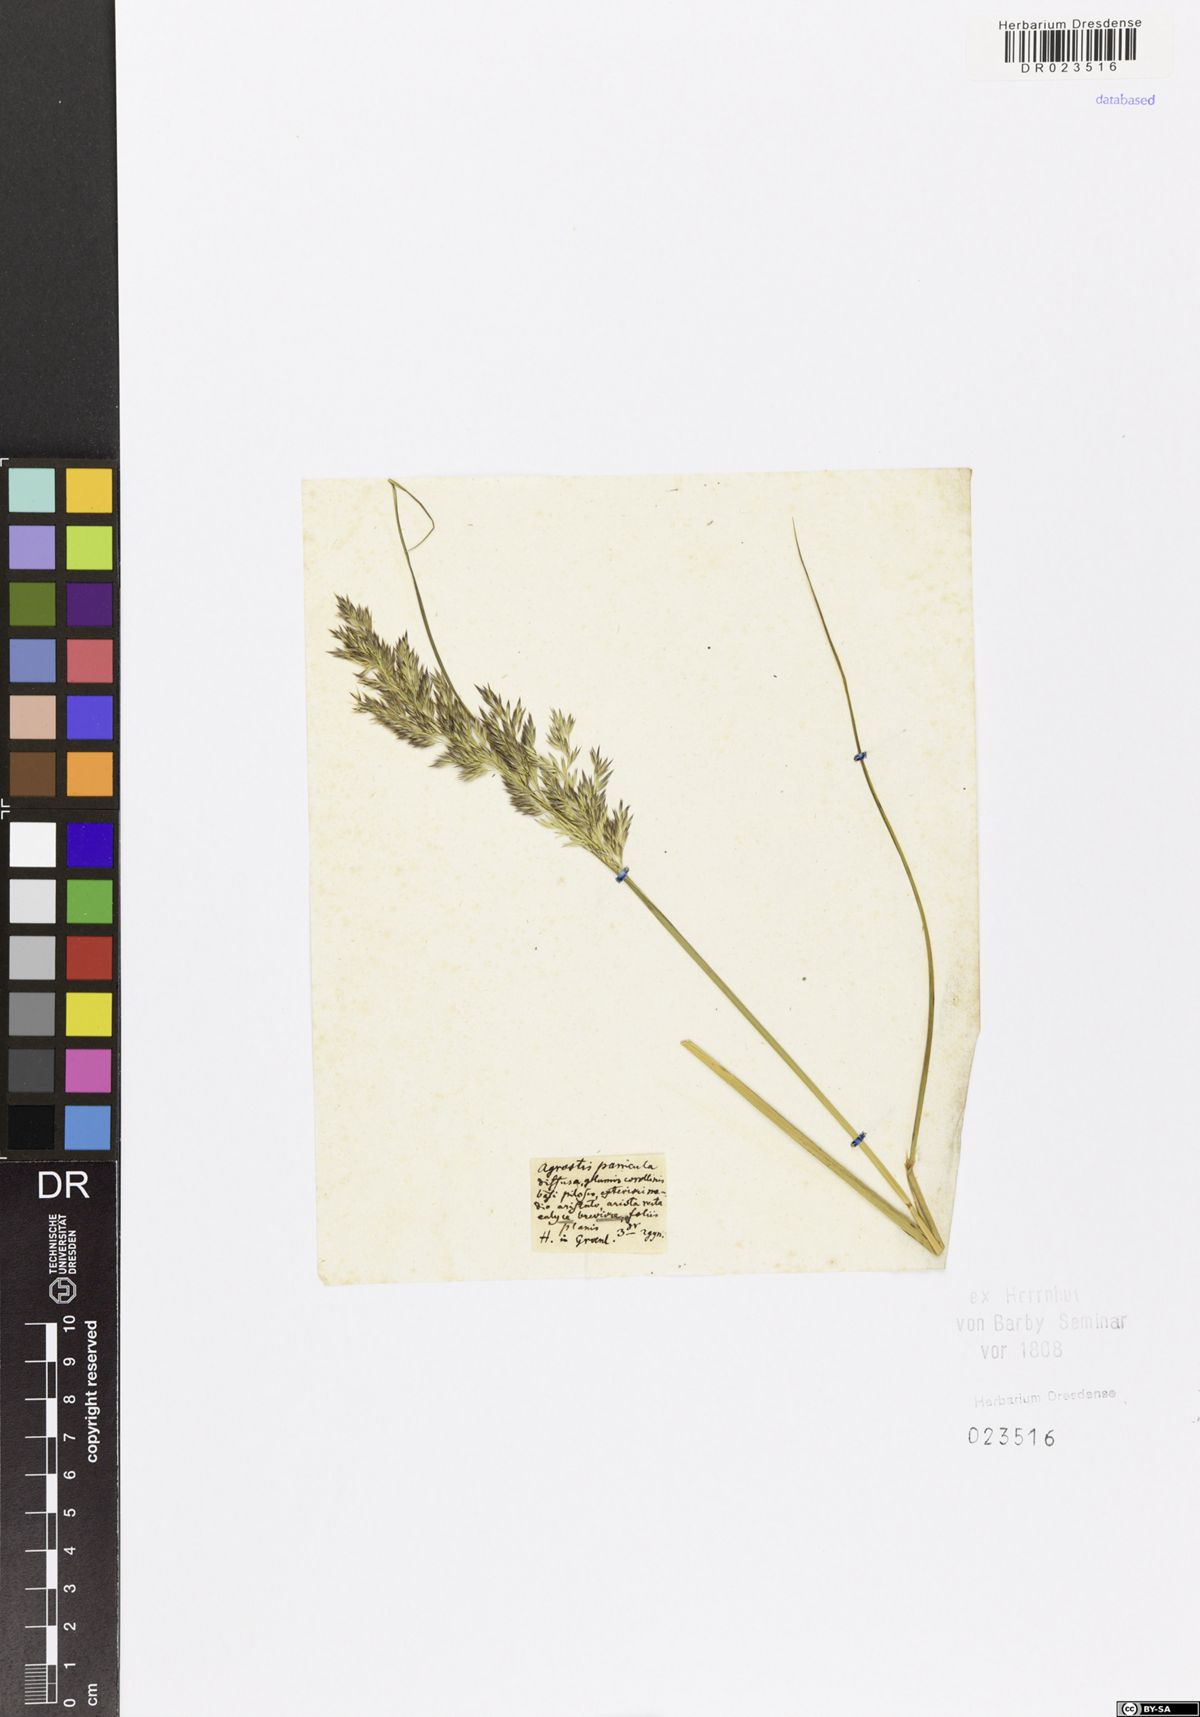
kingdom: Plantae
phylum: Tracheophyta
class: Liliopsida
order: Poales
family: Poaceae
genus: Agrostis
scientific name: Agrostis
